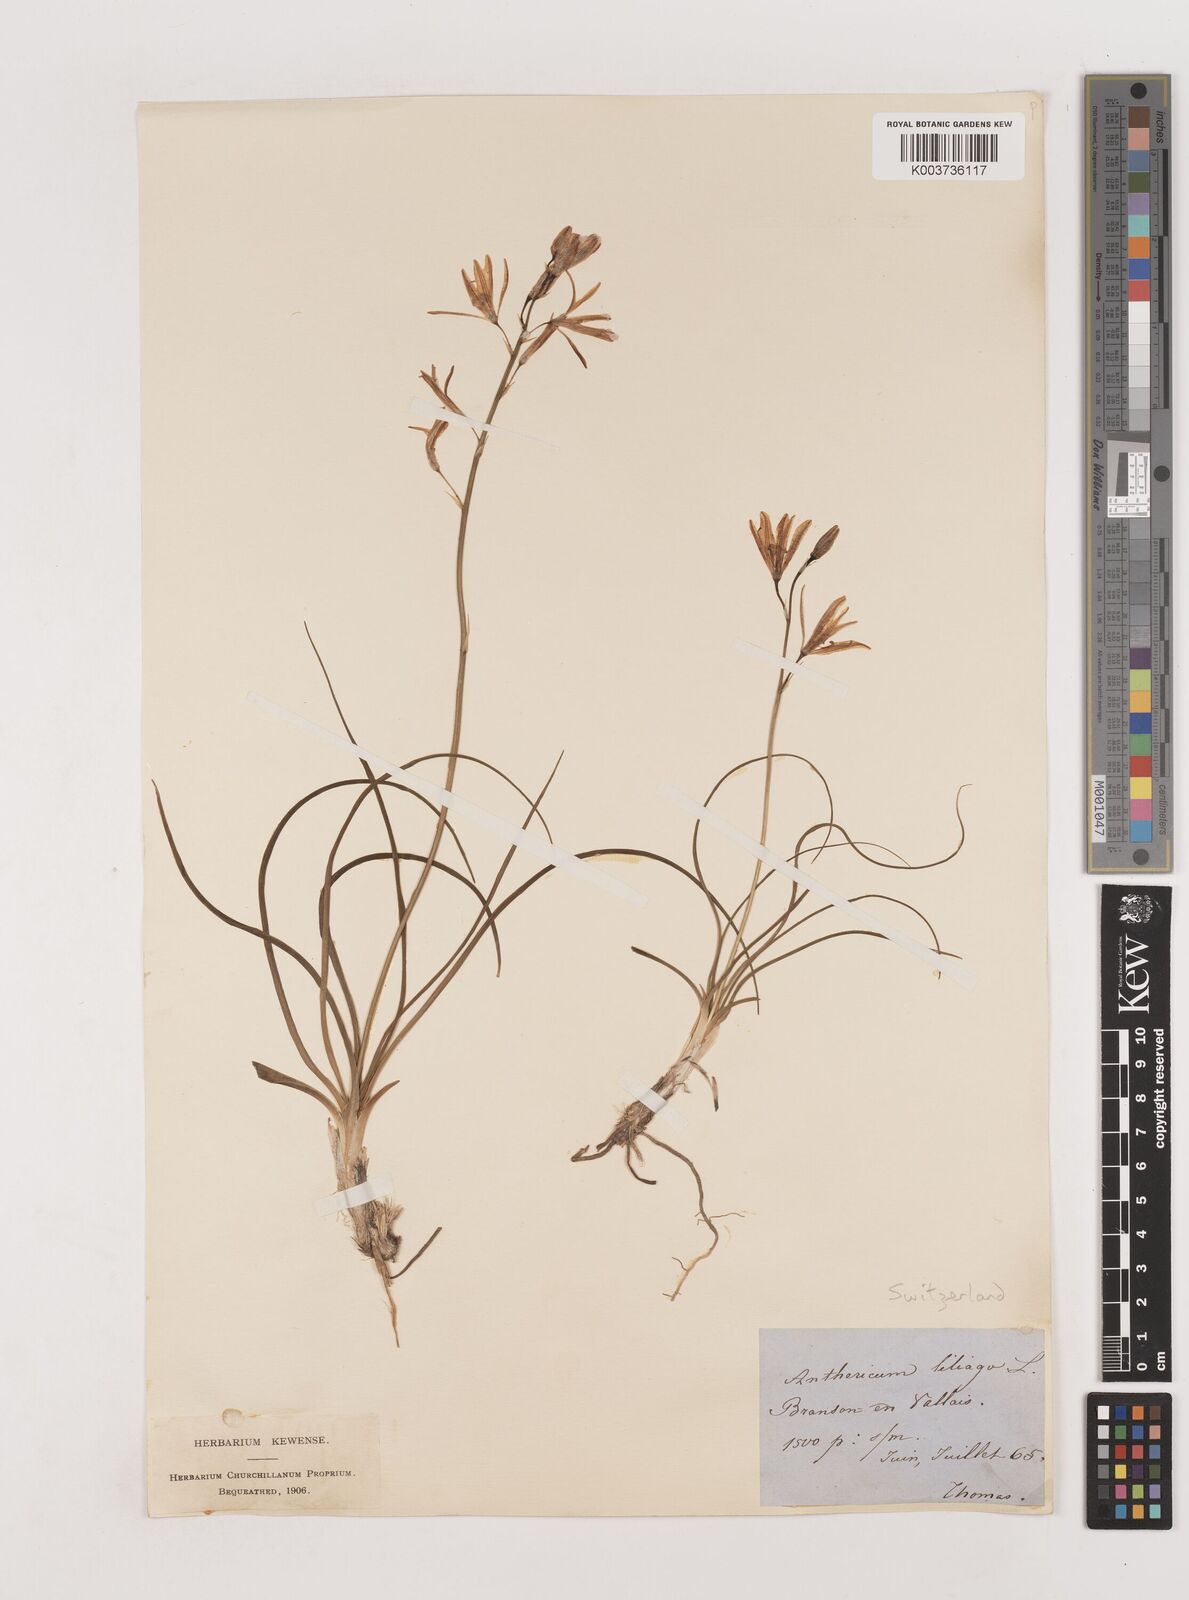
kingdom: Plantae
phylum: Tracheophyta
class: Liliopsida
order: Asparagales
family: Asparagaceae
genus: Anthericum
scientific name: Anthericum liliago
